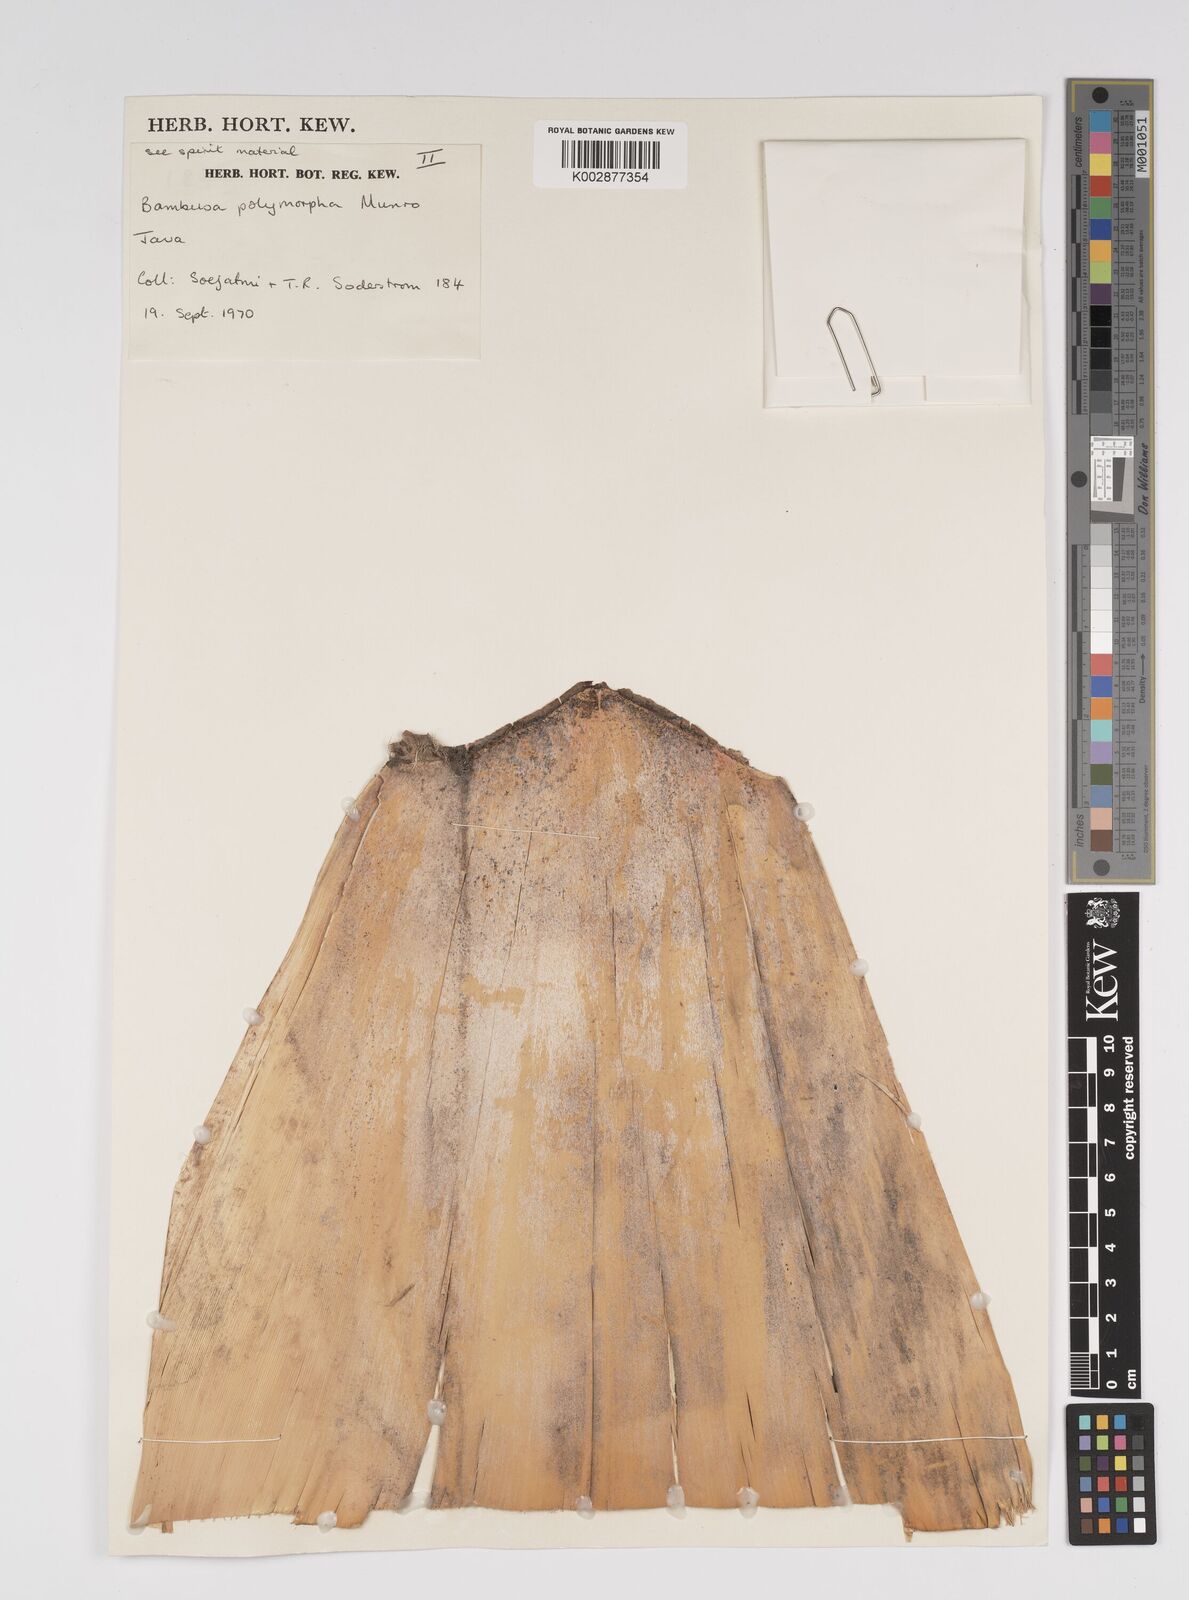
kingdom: Plantae
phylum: Tracheophyta
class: Liliopsida
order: Poales
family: Poaceae
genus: Bambusa
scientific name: Bambusa polymorpha
